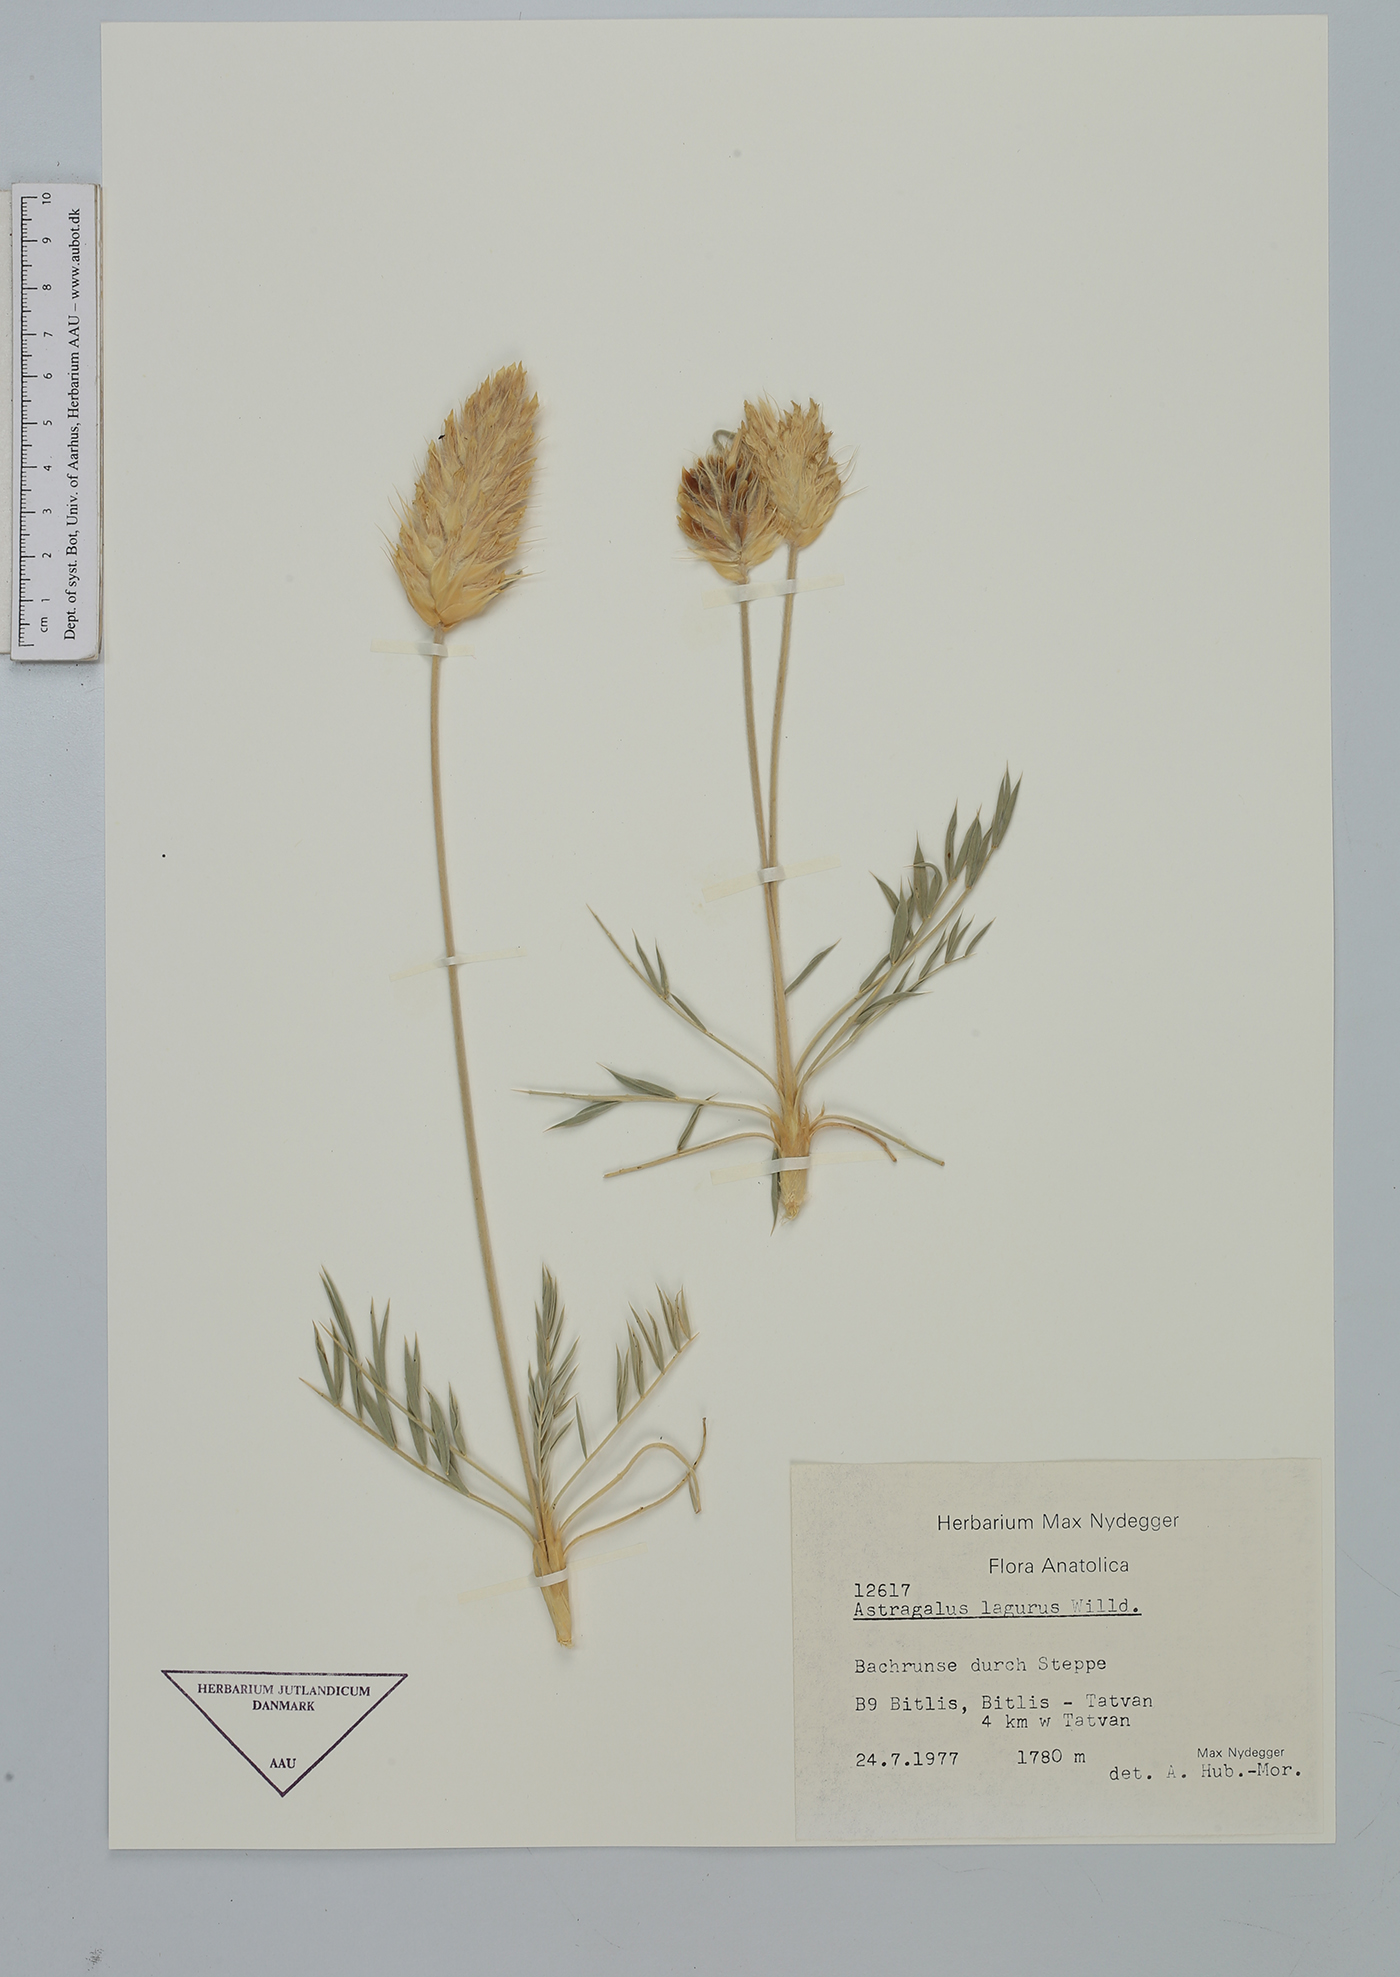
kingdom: Plantae
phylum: Tracheophyta
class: Magnoliopsida
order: Fabales
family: Fabaceae
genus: Astragalus
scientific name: Astragalus lagopoides
